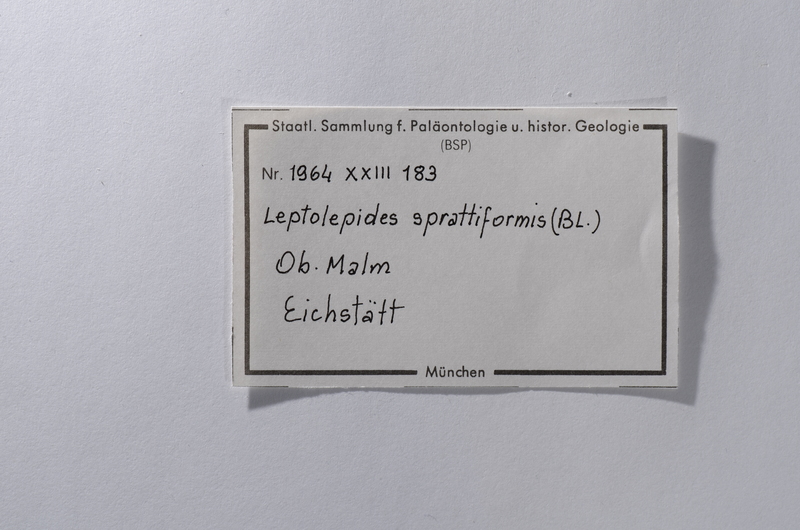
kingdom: Animalia
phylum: Chordata
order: Salmoniformes
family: Orthogonikleithridae
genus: Leptolepides
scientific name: Leptolepides sprattiformis
